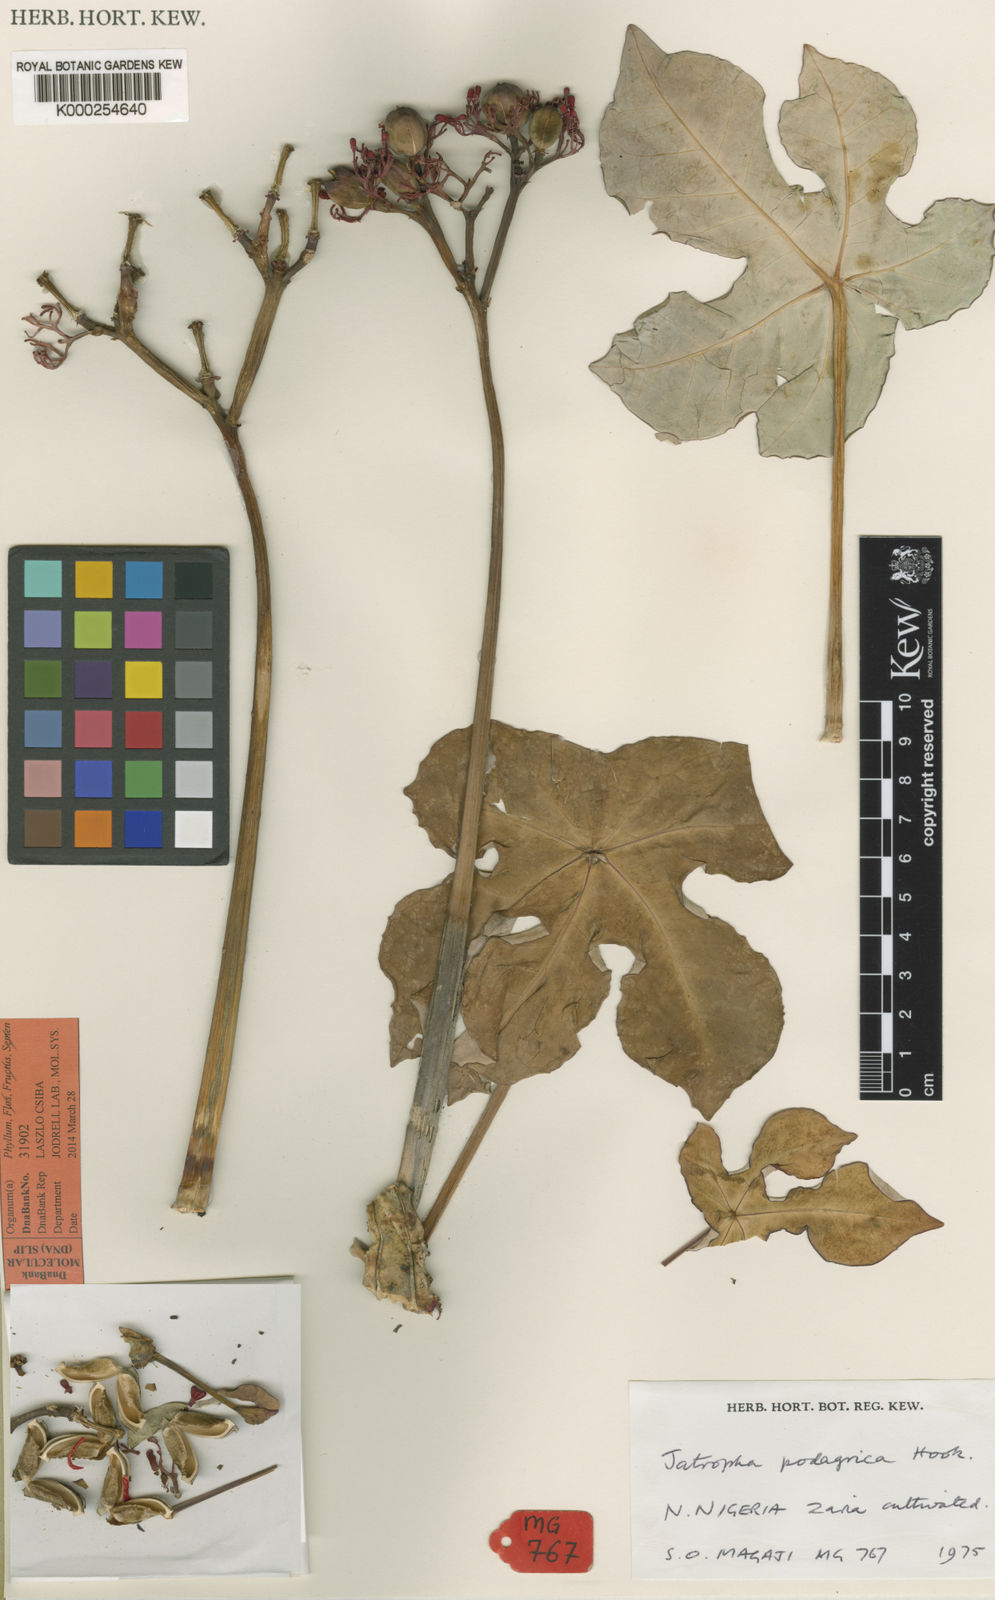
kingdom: Plantae
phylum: Tracheophyta
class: Magnoliopsida
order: Malpighiales
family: Euphorbiaceae
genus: Jatropha
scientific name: Jatropha podagrica
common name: Gout stalk
